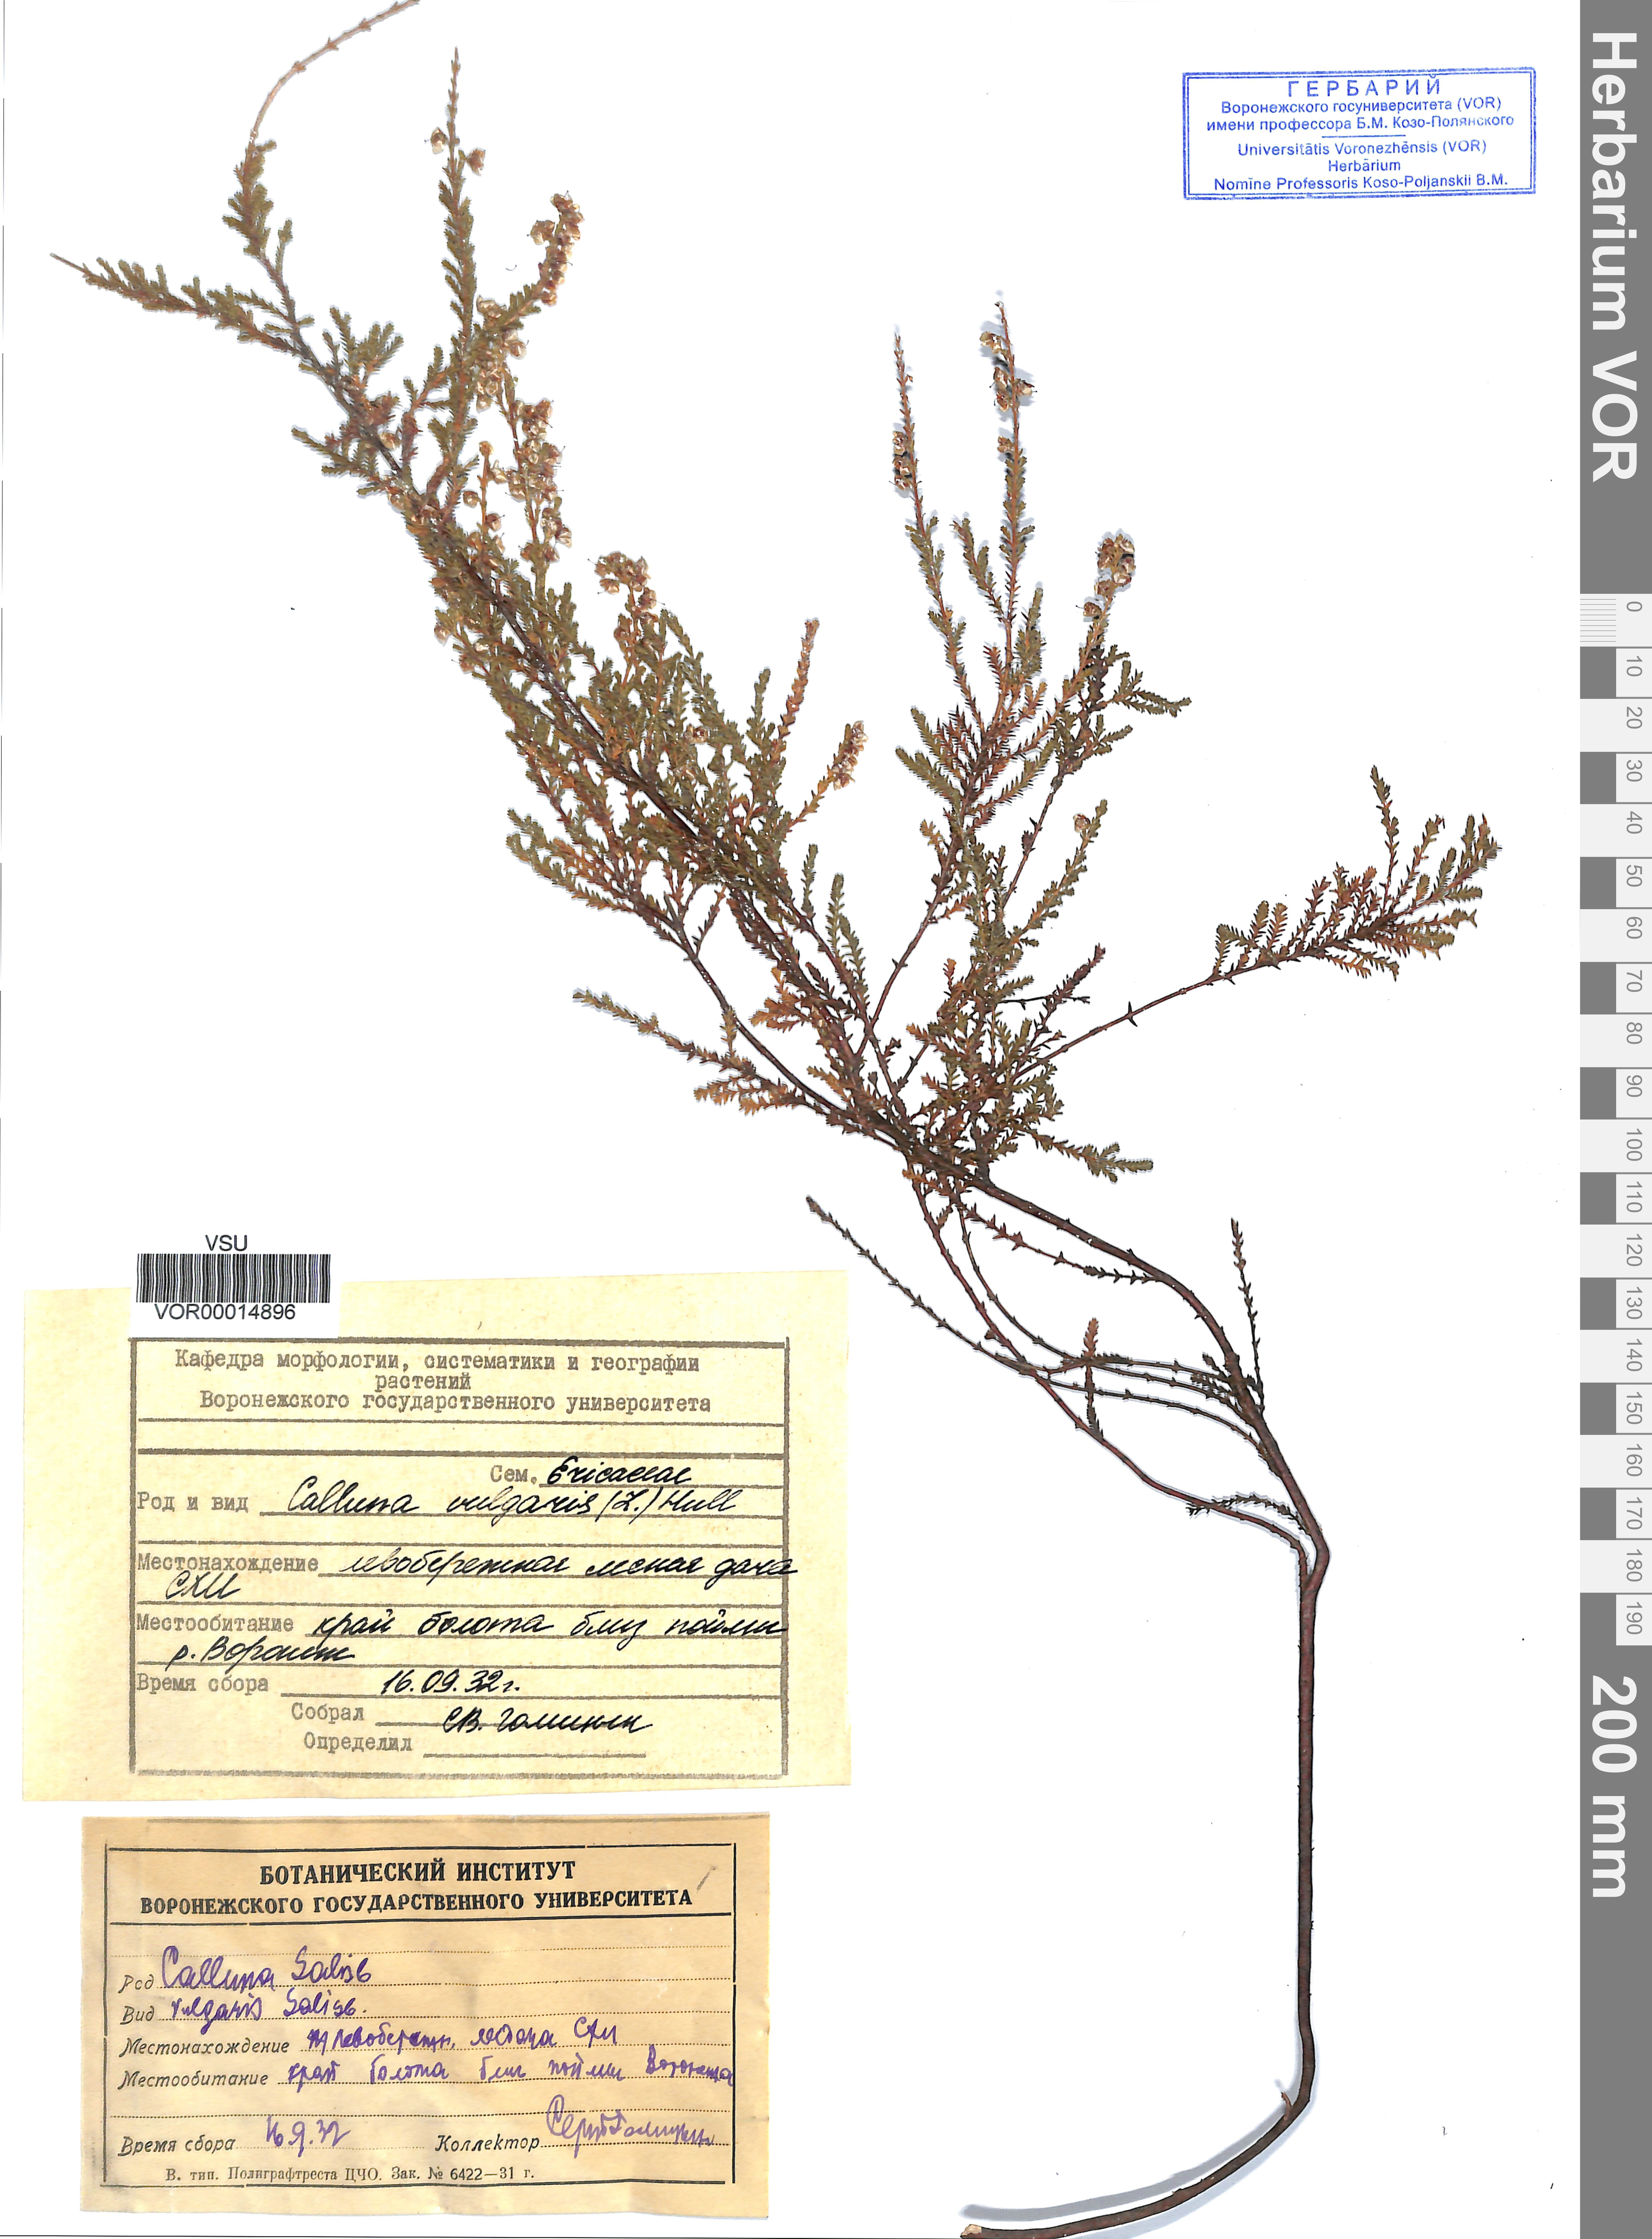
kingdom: Plantae
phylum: Tracheophyta
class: Magnoliopsida
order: Ericales
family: Ericaceae
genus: Calluna
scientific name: Calluna vulgaris
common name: Heather
